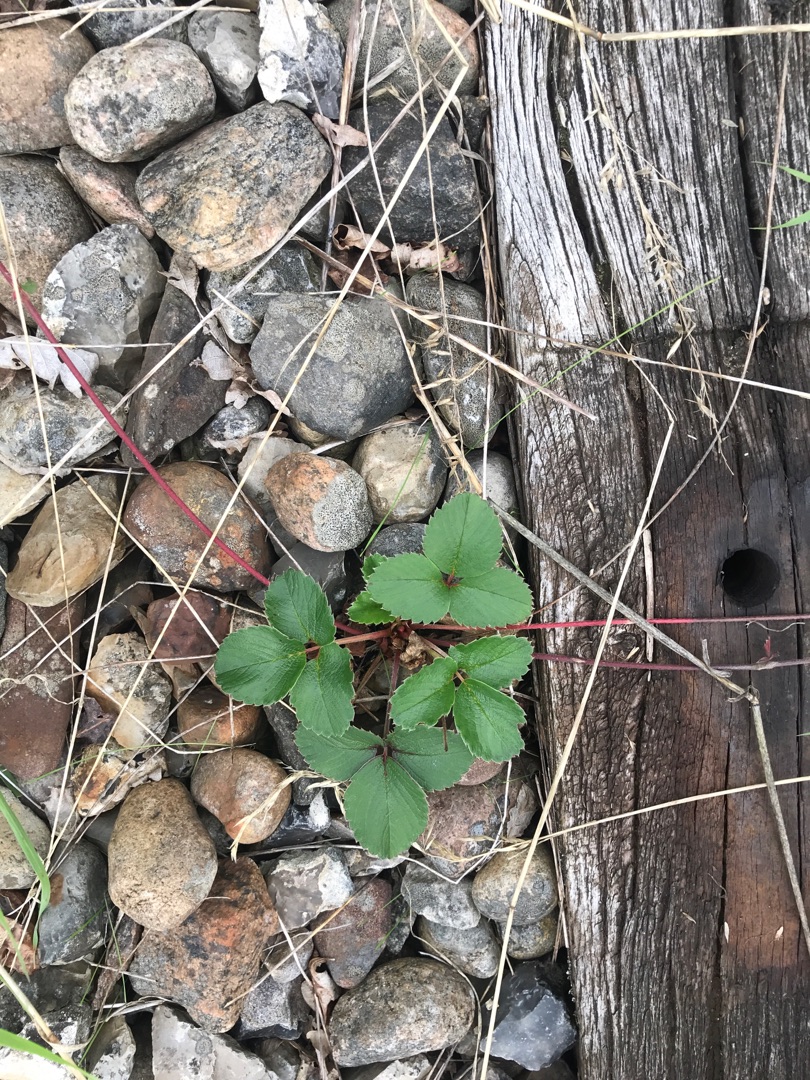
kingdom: Plantae
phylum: Tracheophyta
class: Magnoliopsida
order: Rosales
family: Rosaceae
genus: Fragaria
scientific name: Fragaria vesca
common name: Skov-jordbær
